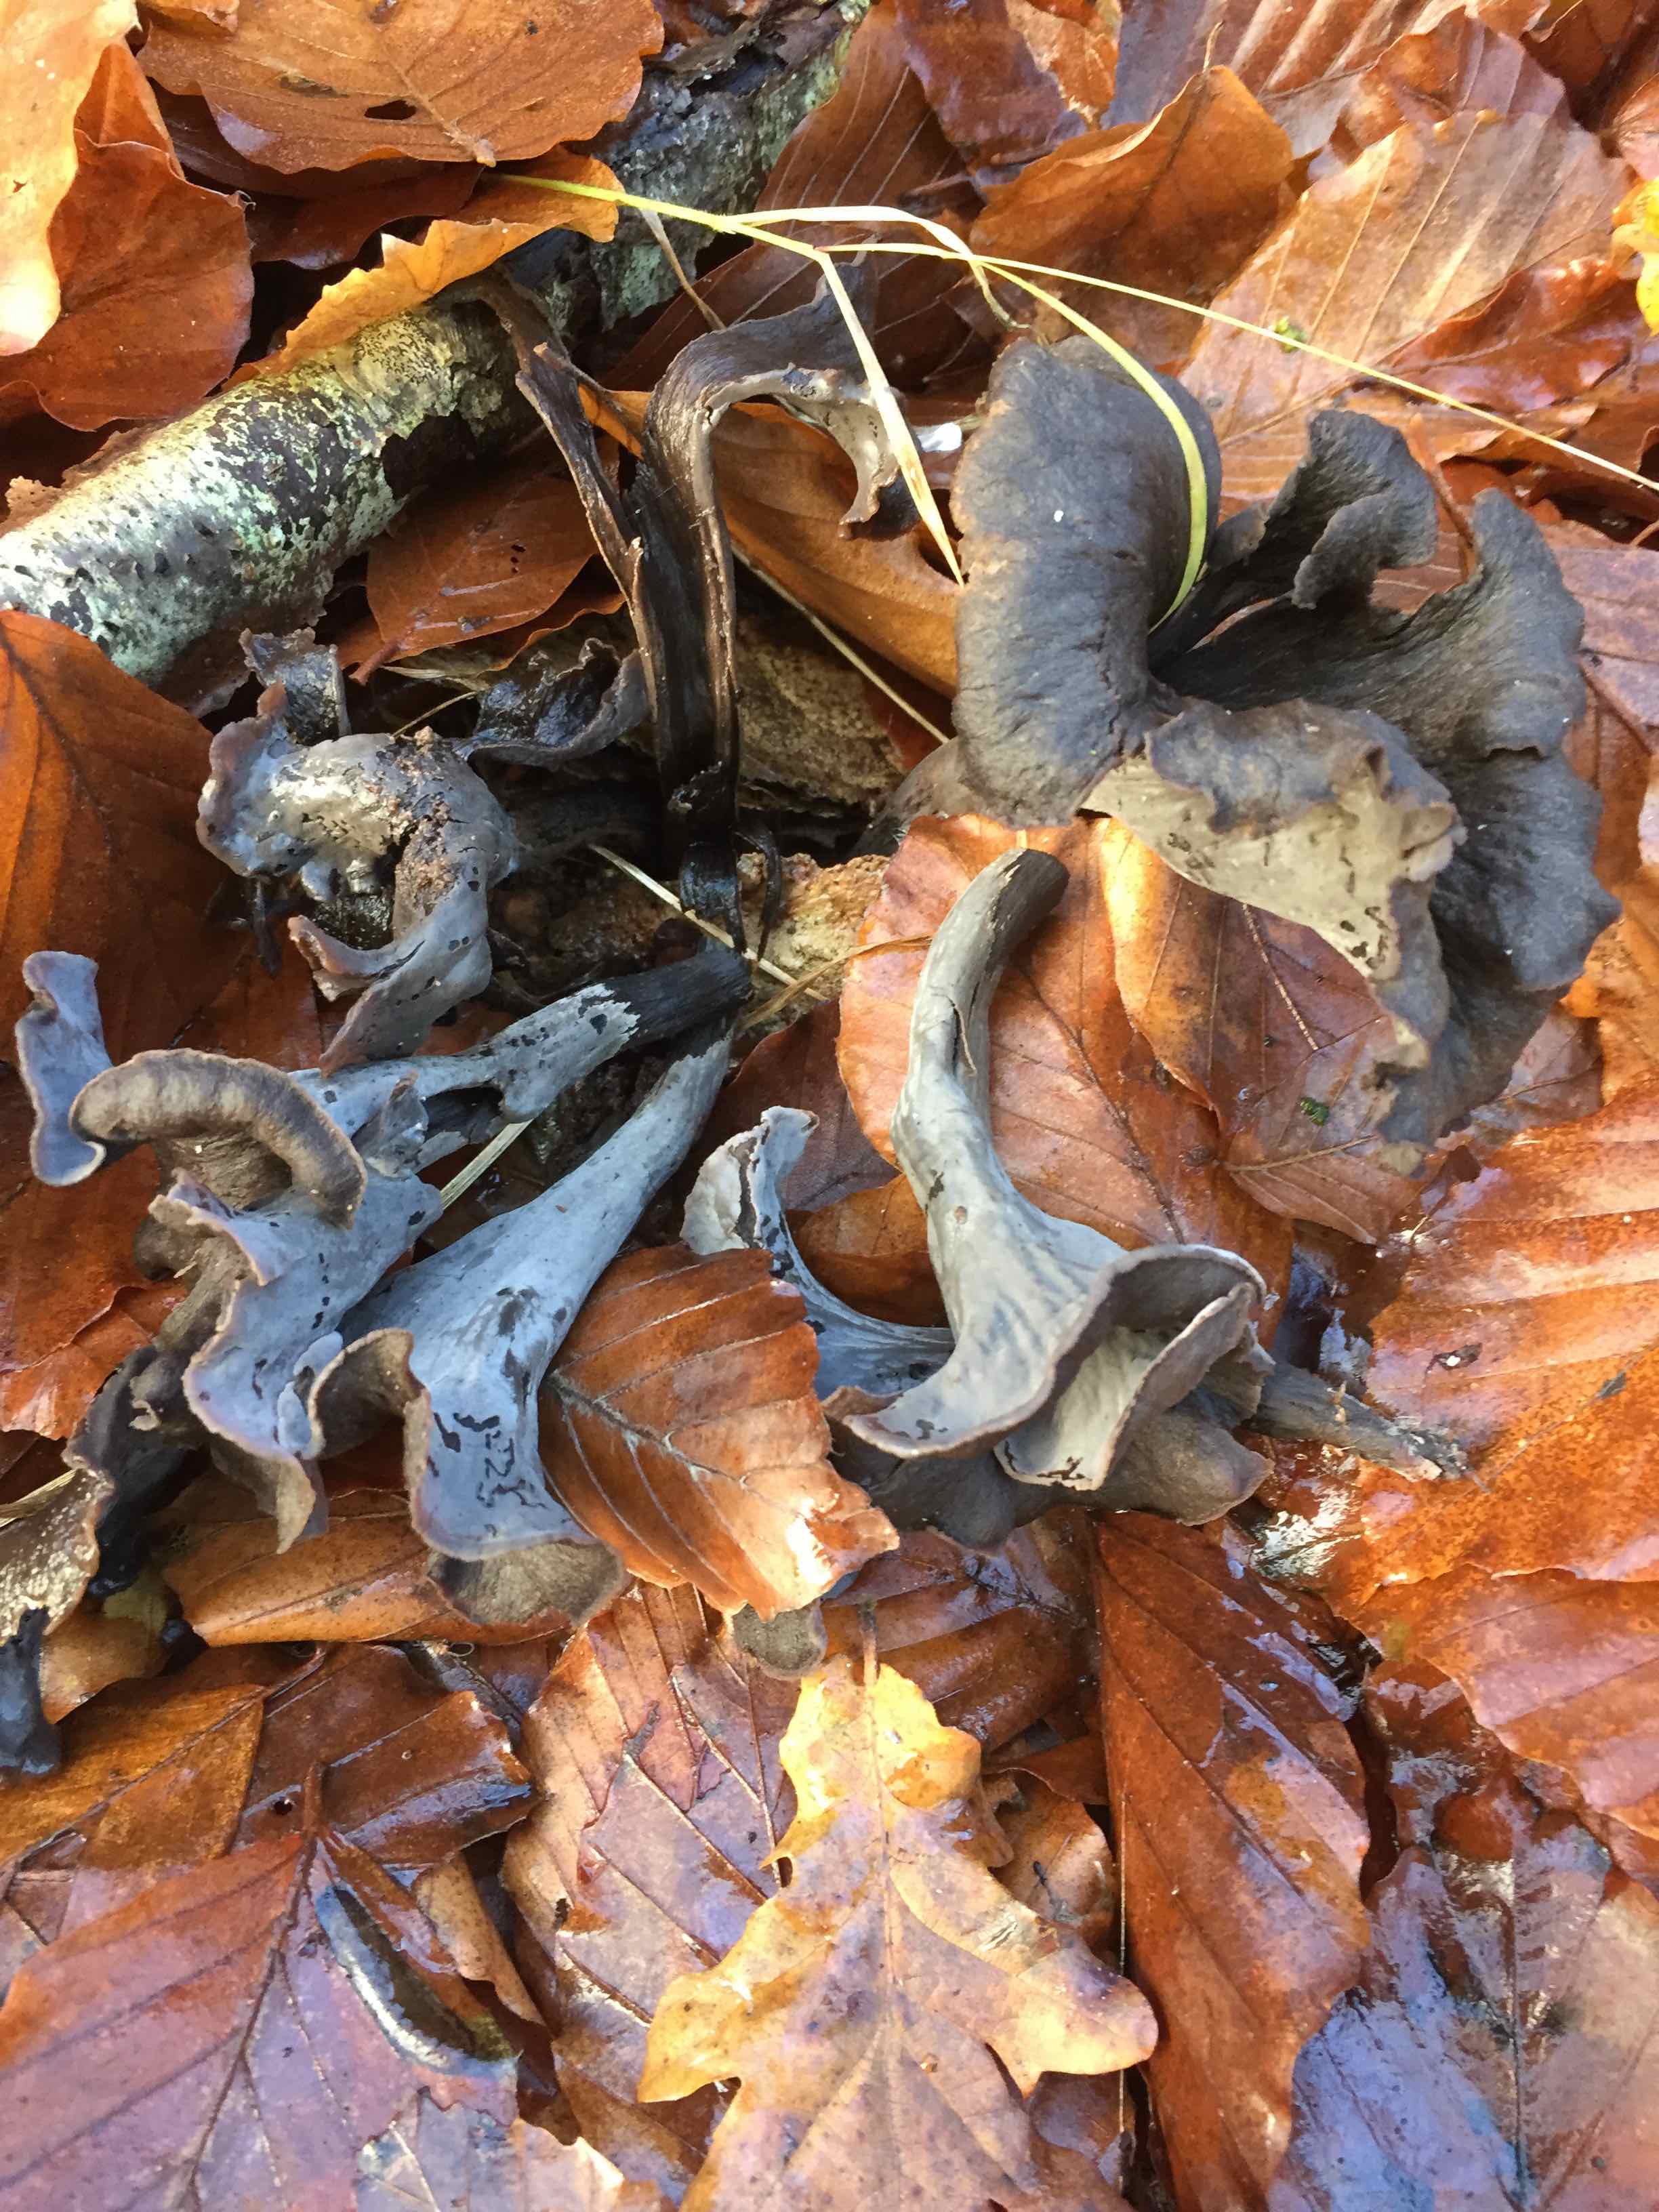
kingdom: Fungi
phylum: Basidiomycota
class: Agaricomycetes
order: Cantharellales
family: Hydnaceae
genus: Craterellus
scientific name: Craterellus cornucopioides
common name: trompetsvamp
